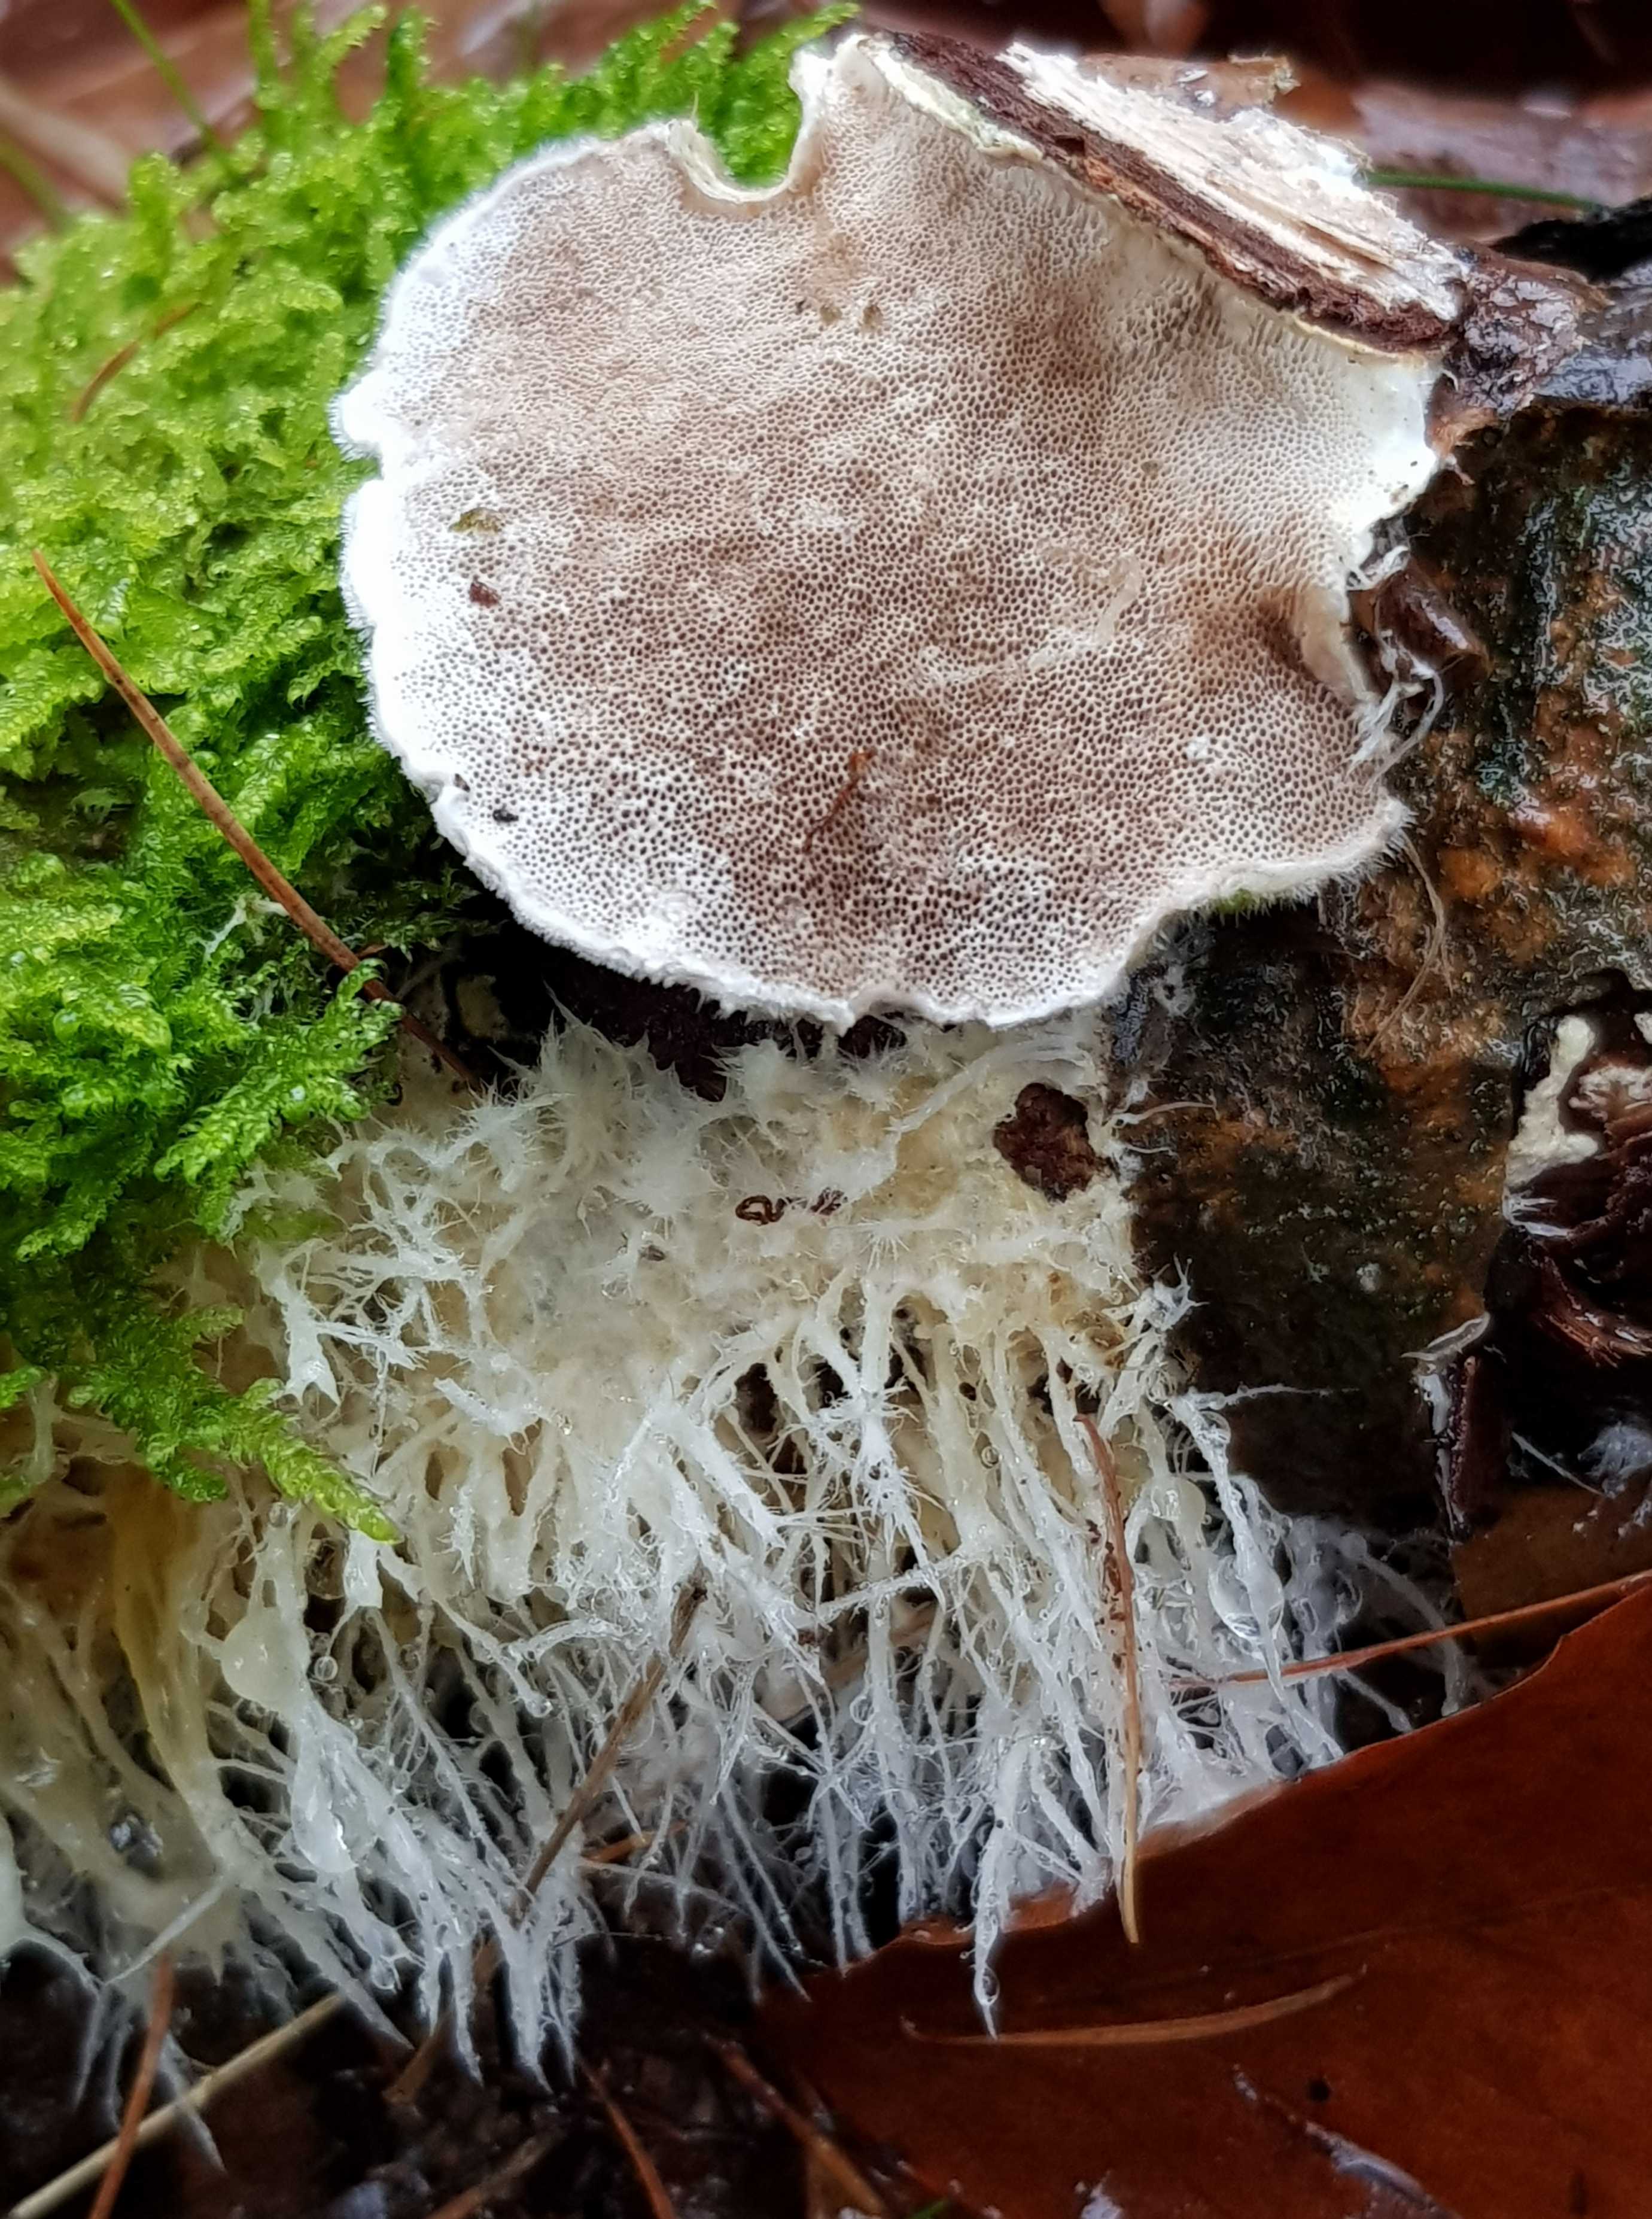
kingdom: Fungi
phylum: Basidiomycota
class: Agaricomycetes
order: Polyporales
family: Polyporaceae
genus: Trametes
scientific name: Trametes hirsuta
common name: håret læderporesvamp
